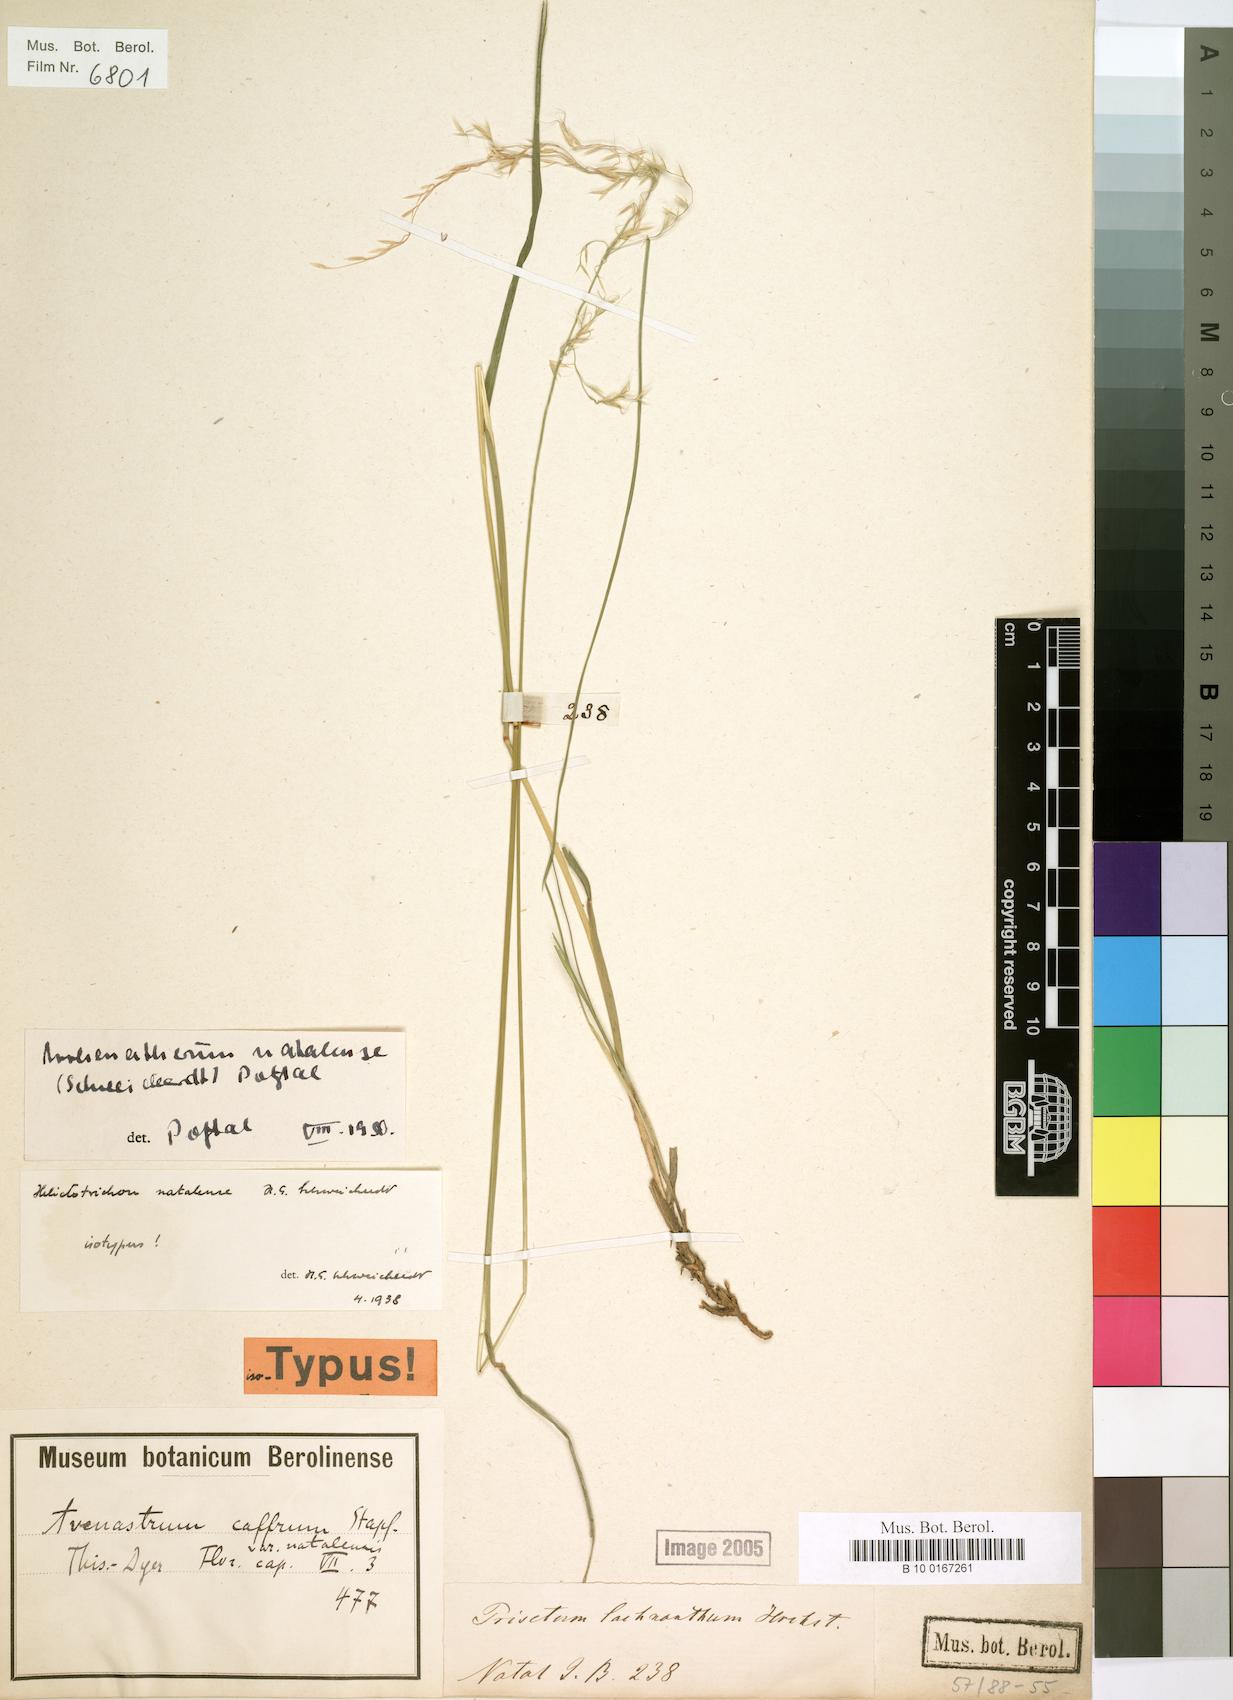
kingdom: Plantae
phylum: Tracheophyta
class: Liliopsida
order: Poales
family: Poaceae
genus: Trisetopsis
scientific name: Trisetopsis natalensis
